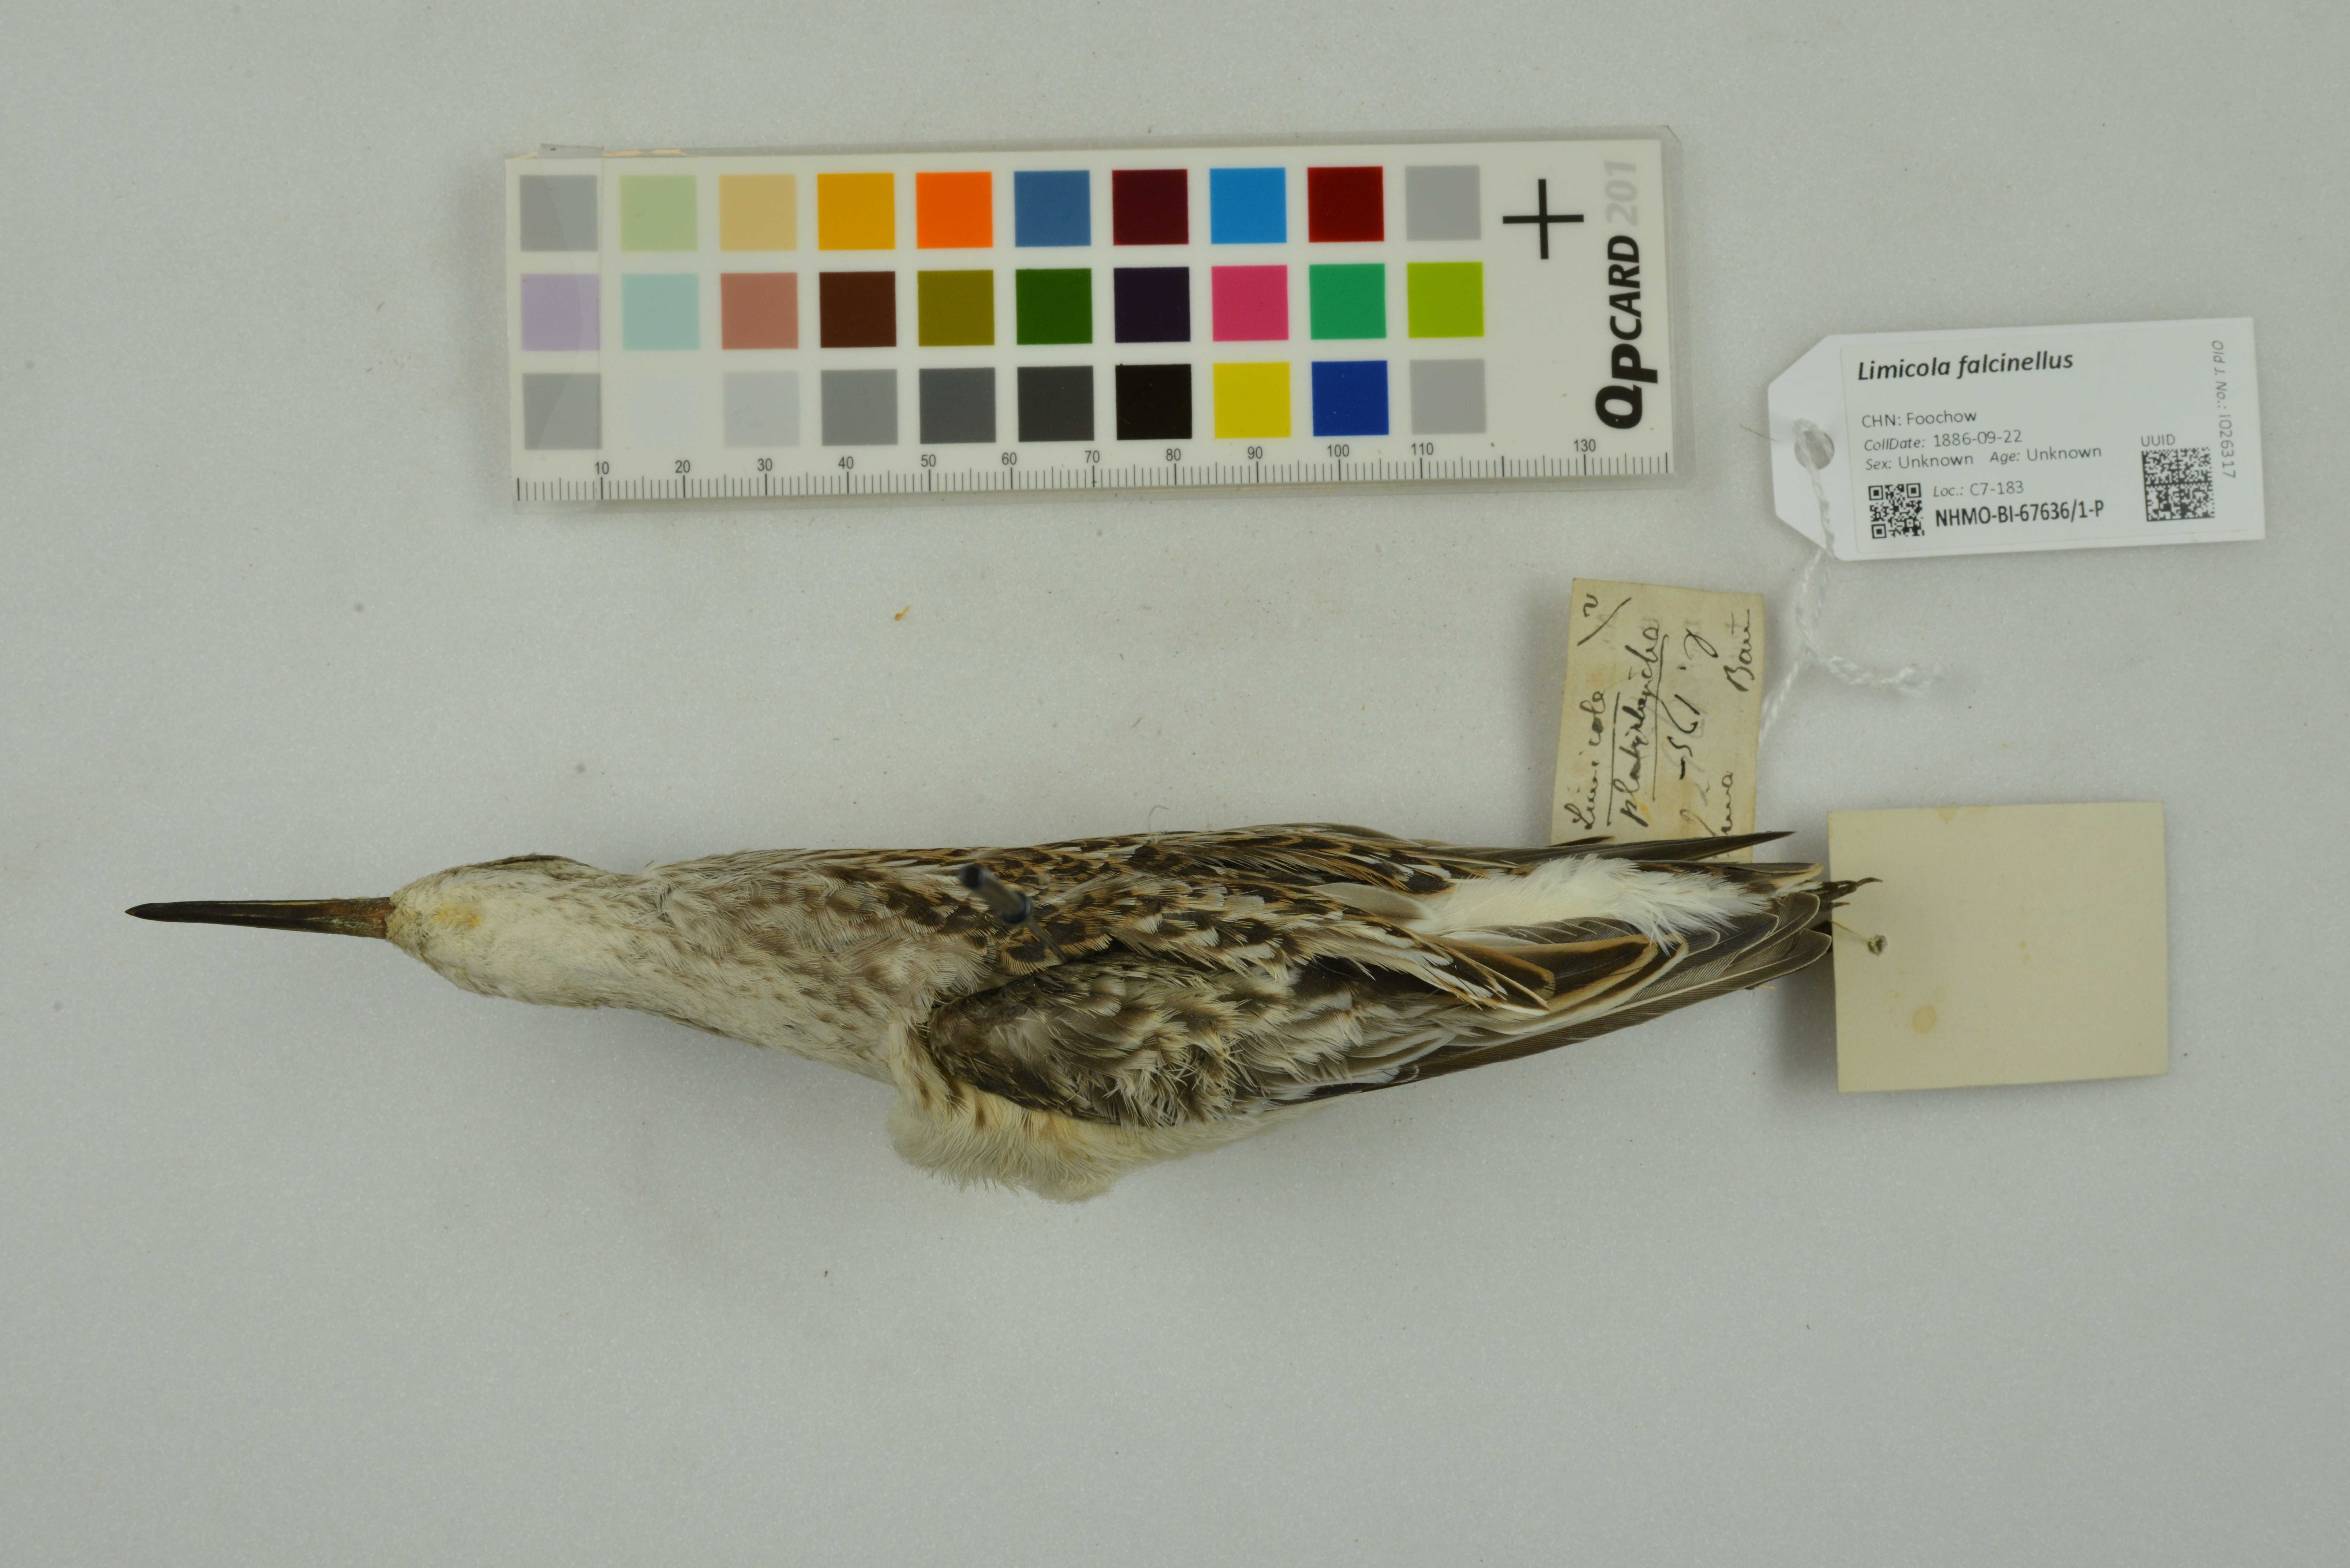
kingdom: Animalia
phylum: Chordata
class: Aves
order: Charadriiformes
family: Scolopacidae
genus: Calidris
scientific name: Calidris falcinellus
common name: Broad-billed sandpiper
